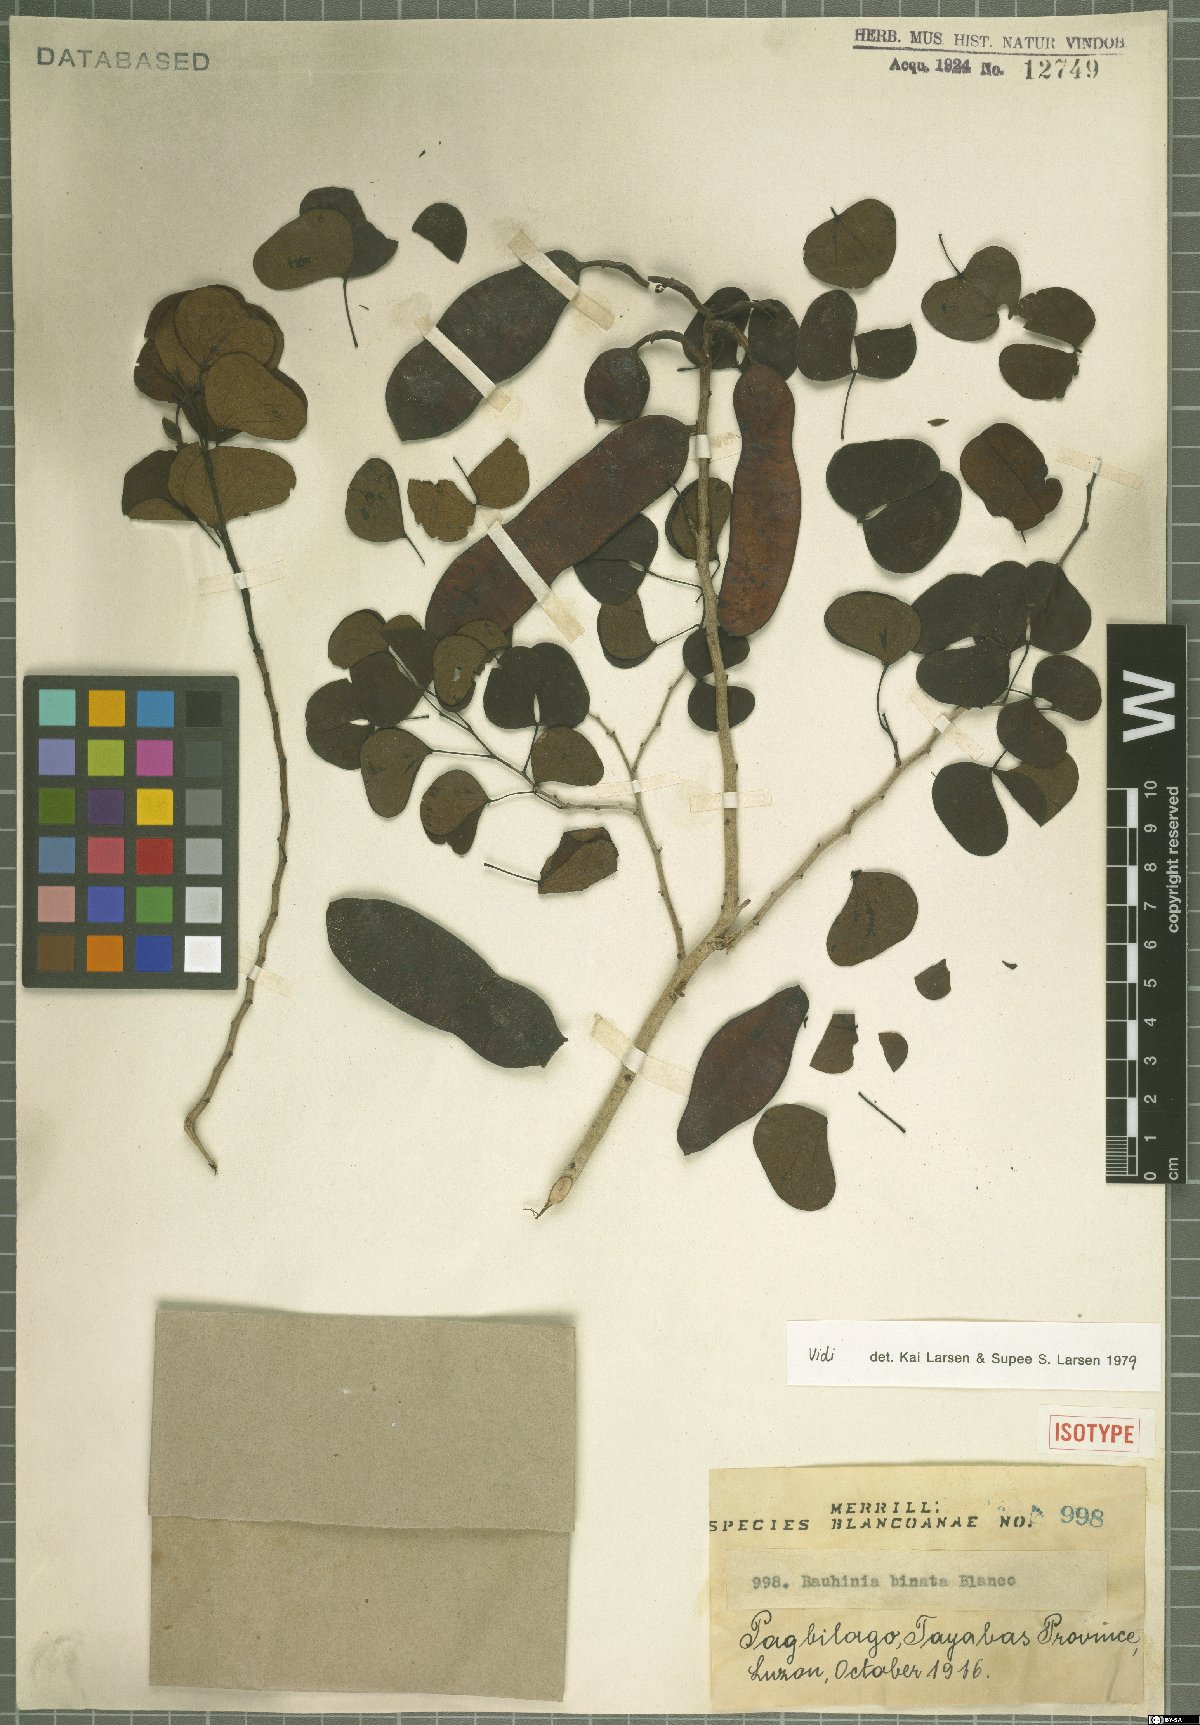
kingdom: Plantae
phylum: Tracheophyta
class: Magnoliopsida
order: Fabales
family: Fabaceae
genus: Lysiphyllum
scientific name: Lysiphyllum binatum
